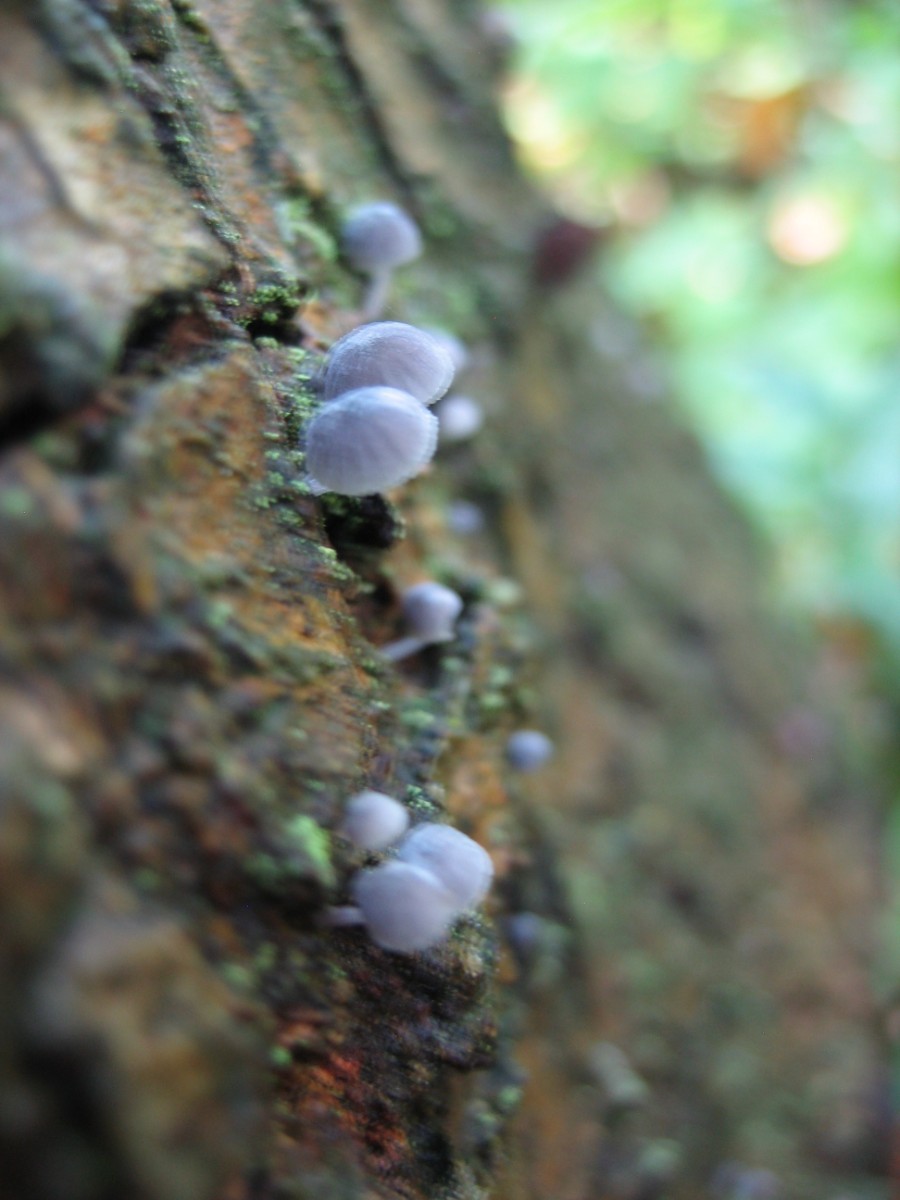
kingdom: Fungi
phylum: Basidiomycota
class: Agaricomycetes
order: Agaricales
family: Mycenaceae
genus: Mycena
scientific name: Mycena pseudocorticola
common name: gråblå bark-huesvamp
